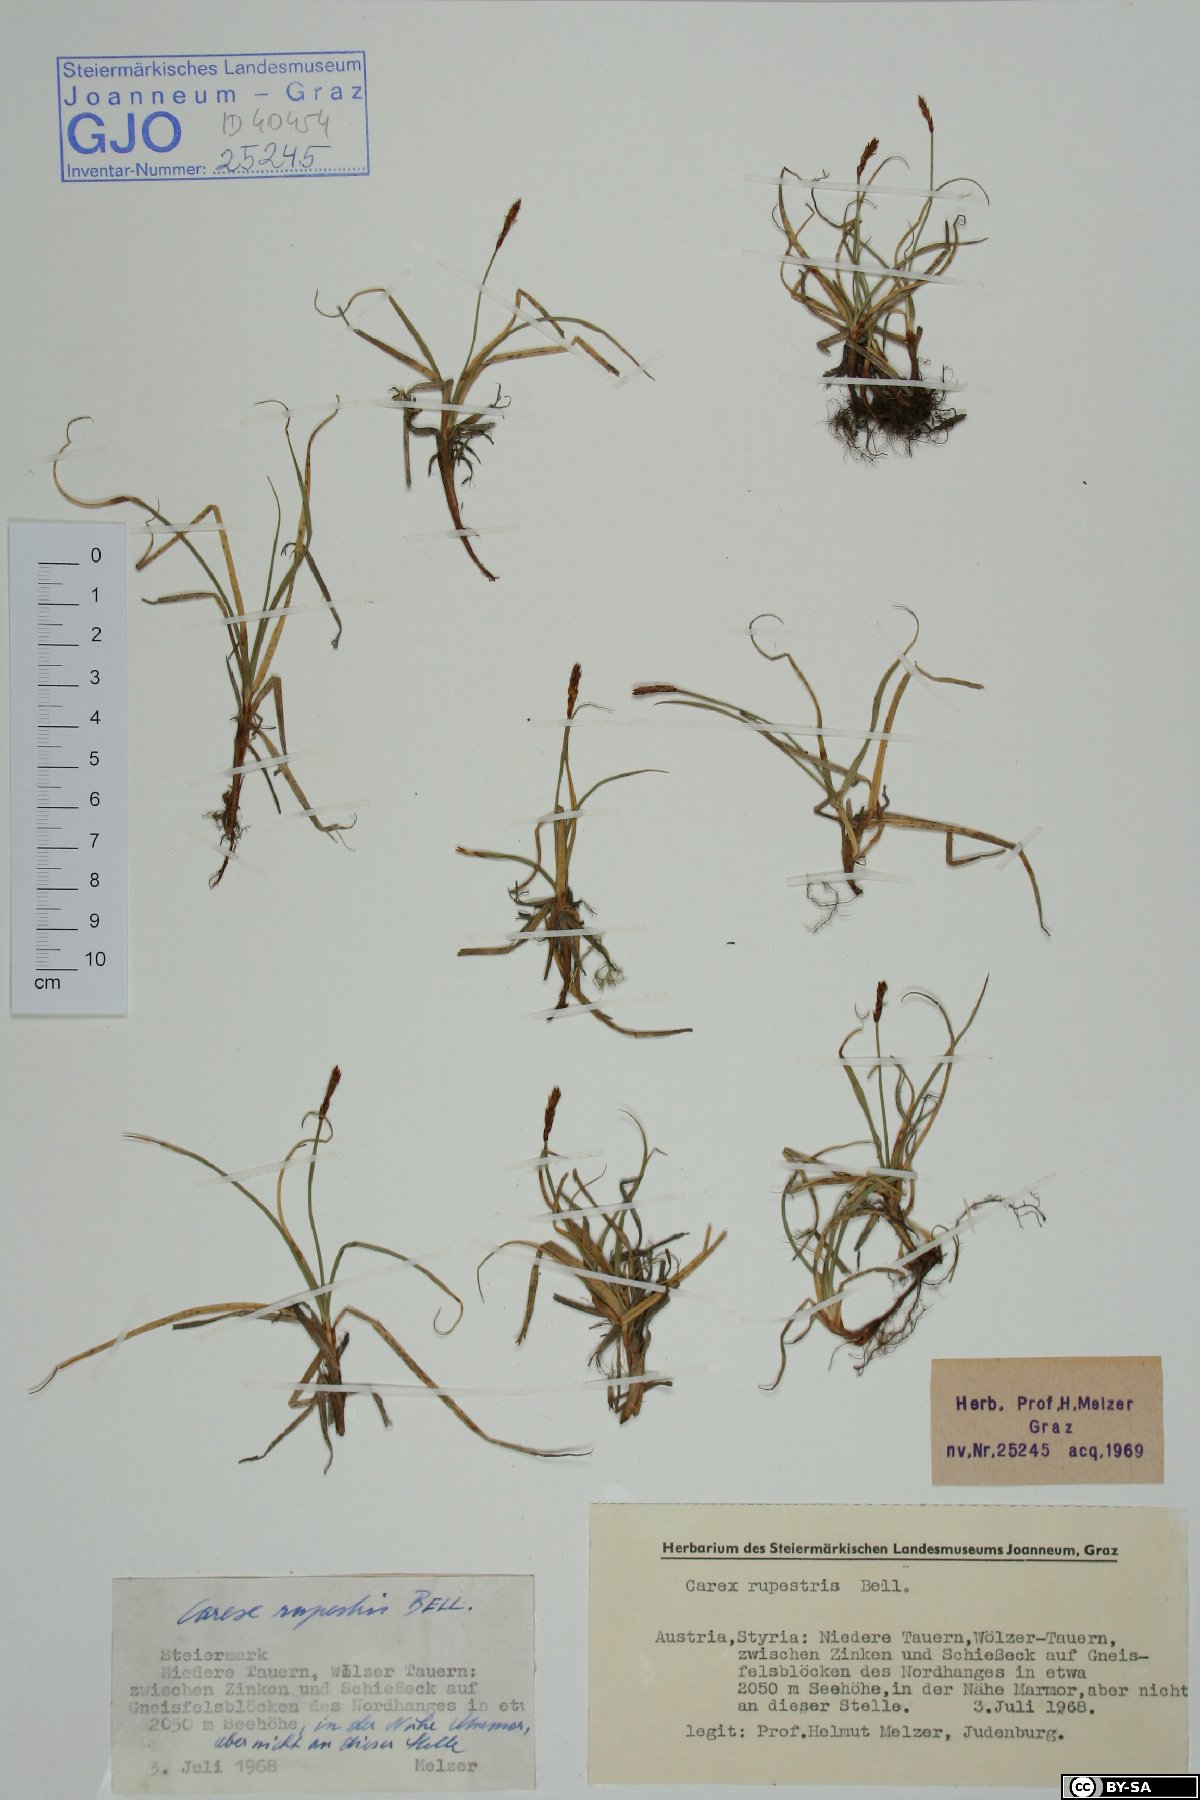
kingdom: Plantae
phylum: Tracheophyta
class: Liliopsida
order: Poales
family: Cyperaceae
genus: Carex
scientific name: Carex rupestris
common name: Rock sedge
